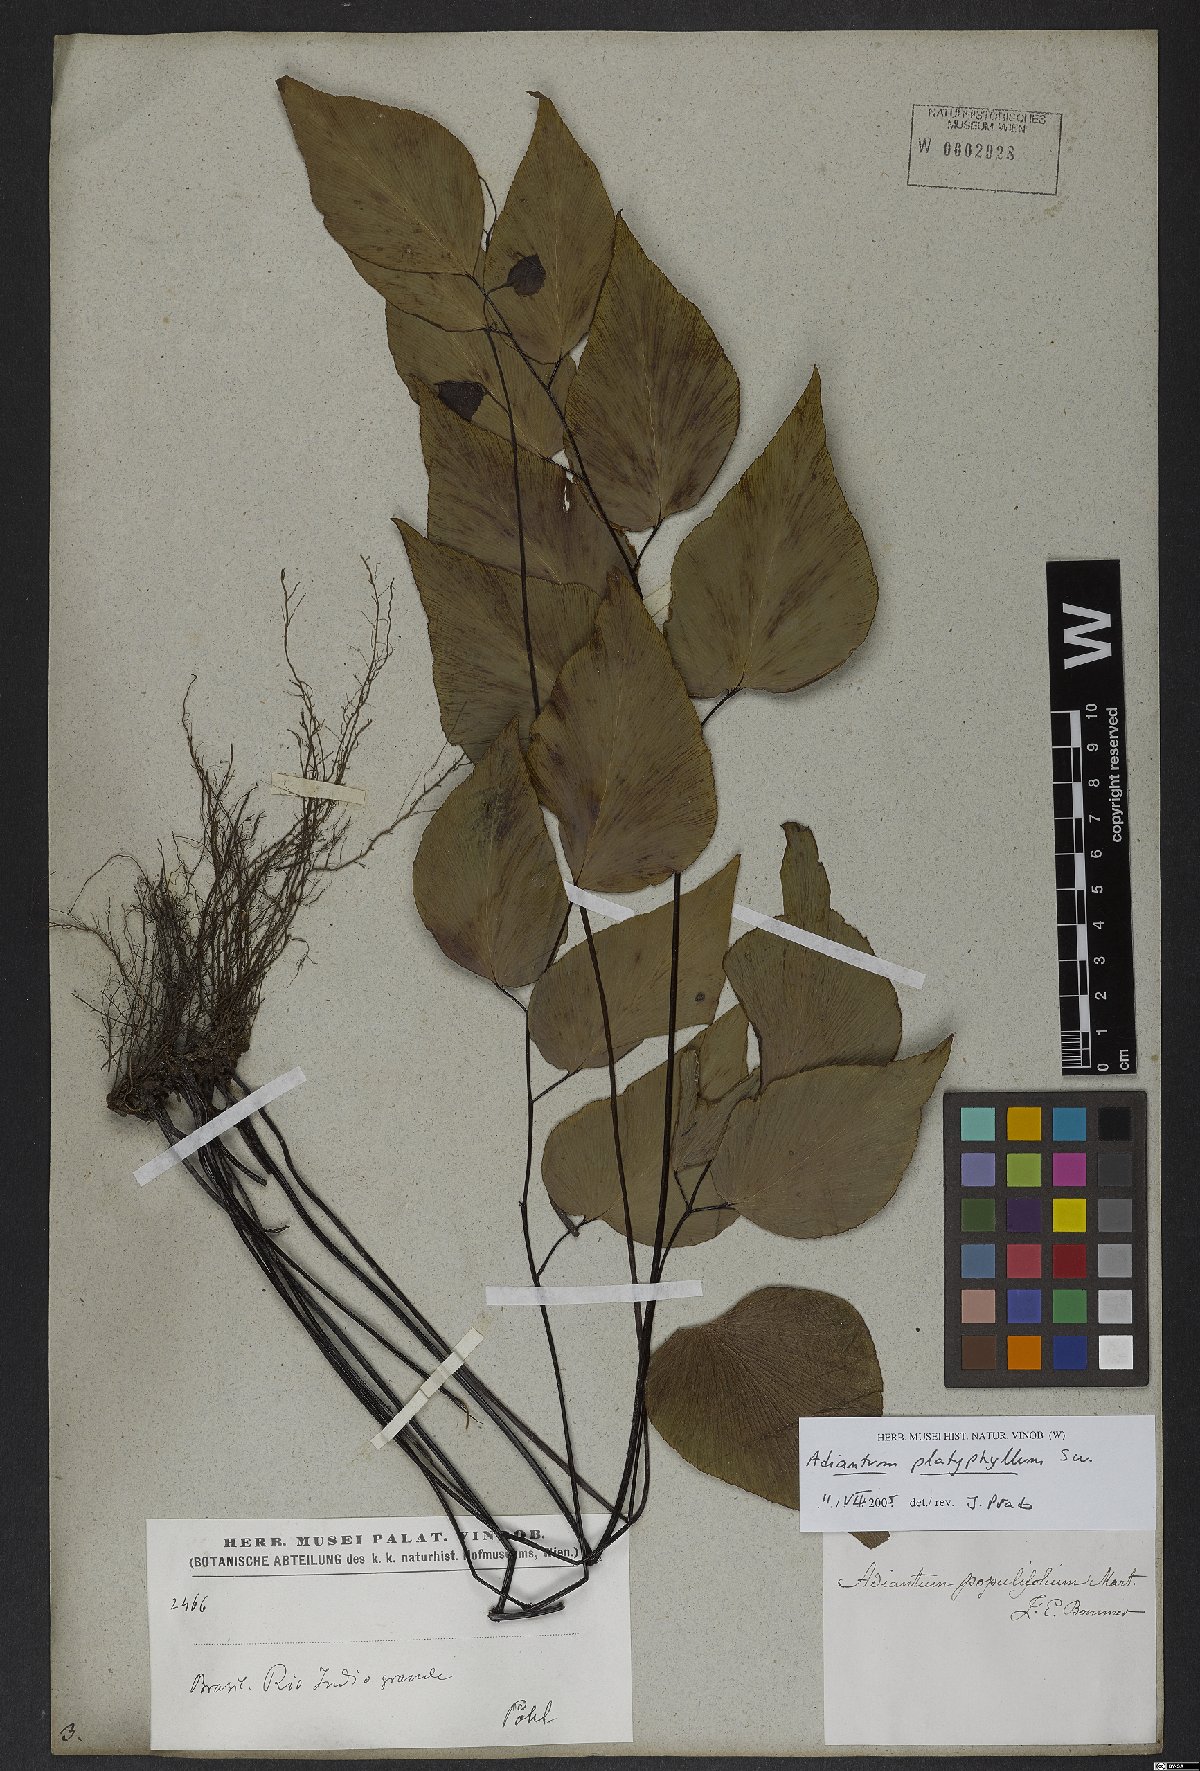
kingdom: Plantae
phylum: Tracheophyta
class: Polypodiopsida
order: Polypodiales
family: Pteridaceae
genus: Adiantum
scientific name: Adiantum platyphyllum
